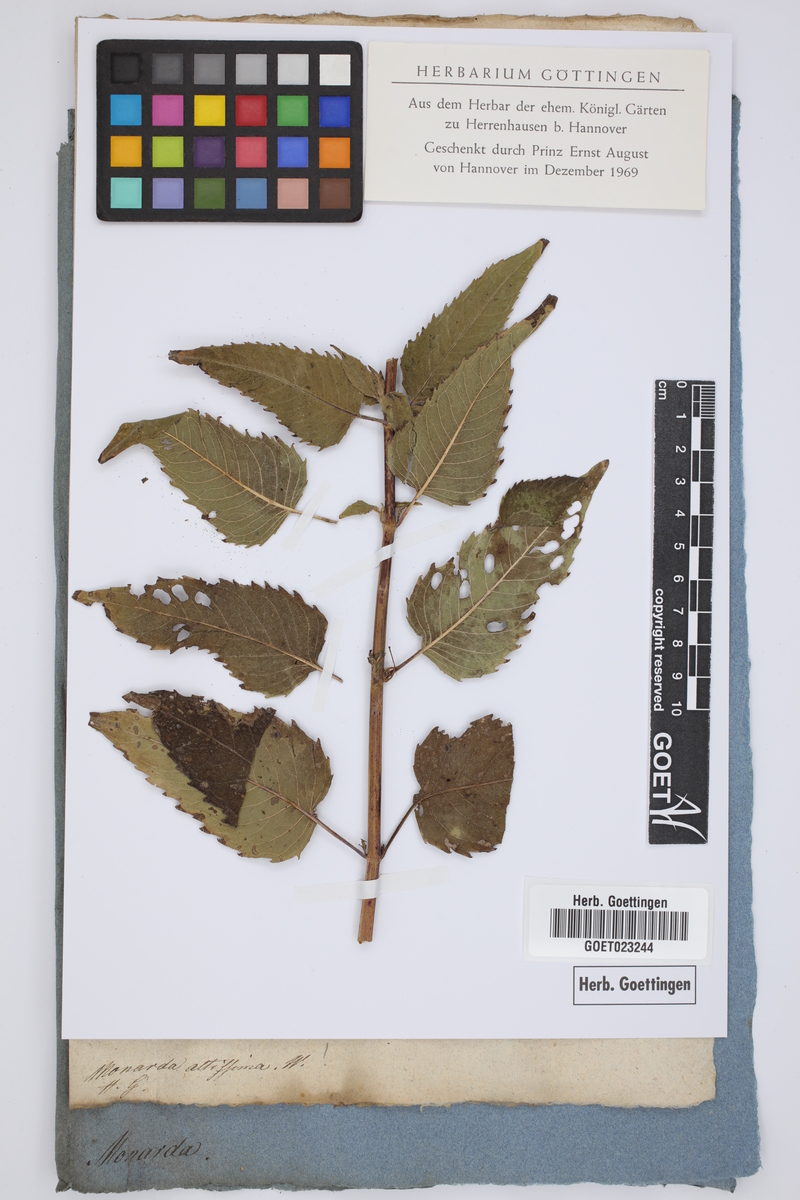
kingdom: Plantae
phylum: Tracheophyta
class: Magnoliopsida
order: Lamiales
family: Lamiaceae
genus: Monarda
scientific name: Monarda clinopodia
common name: Basil beebalm
